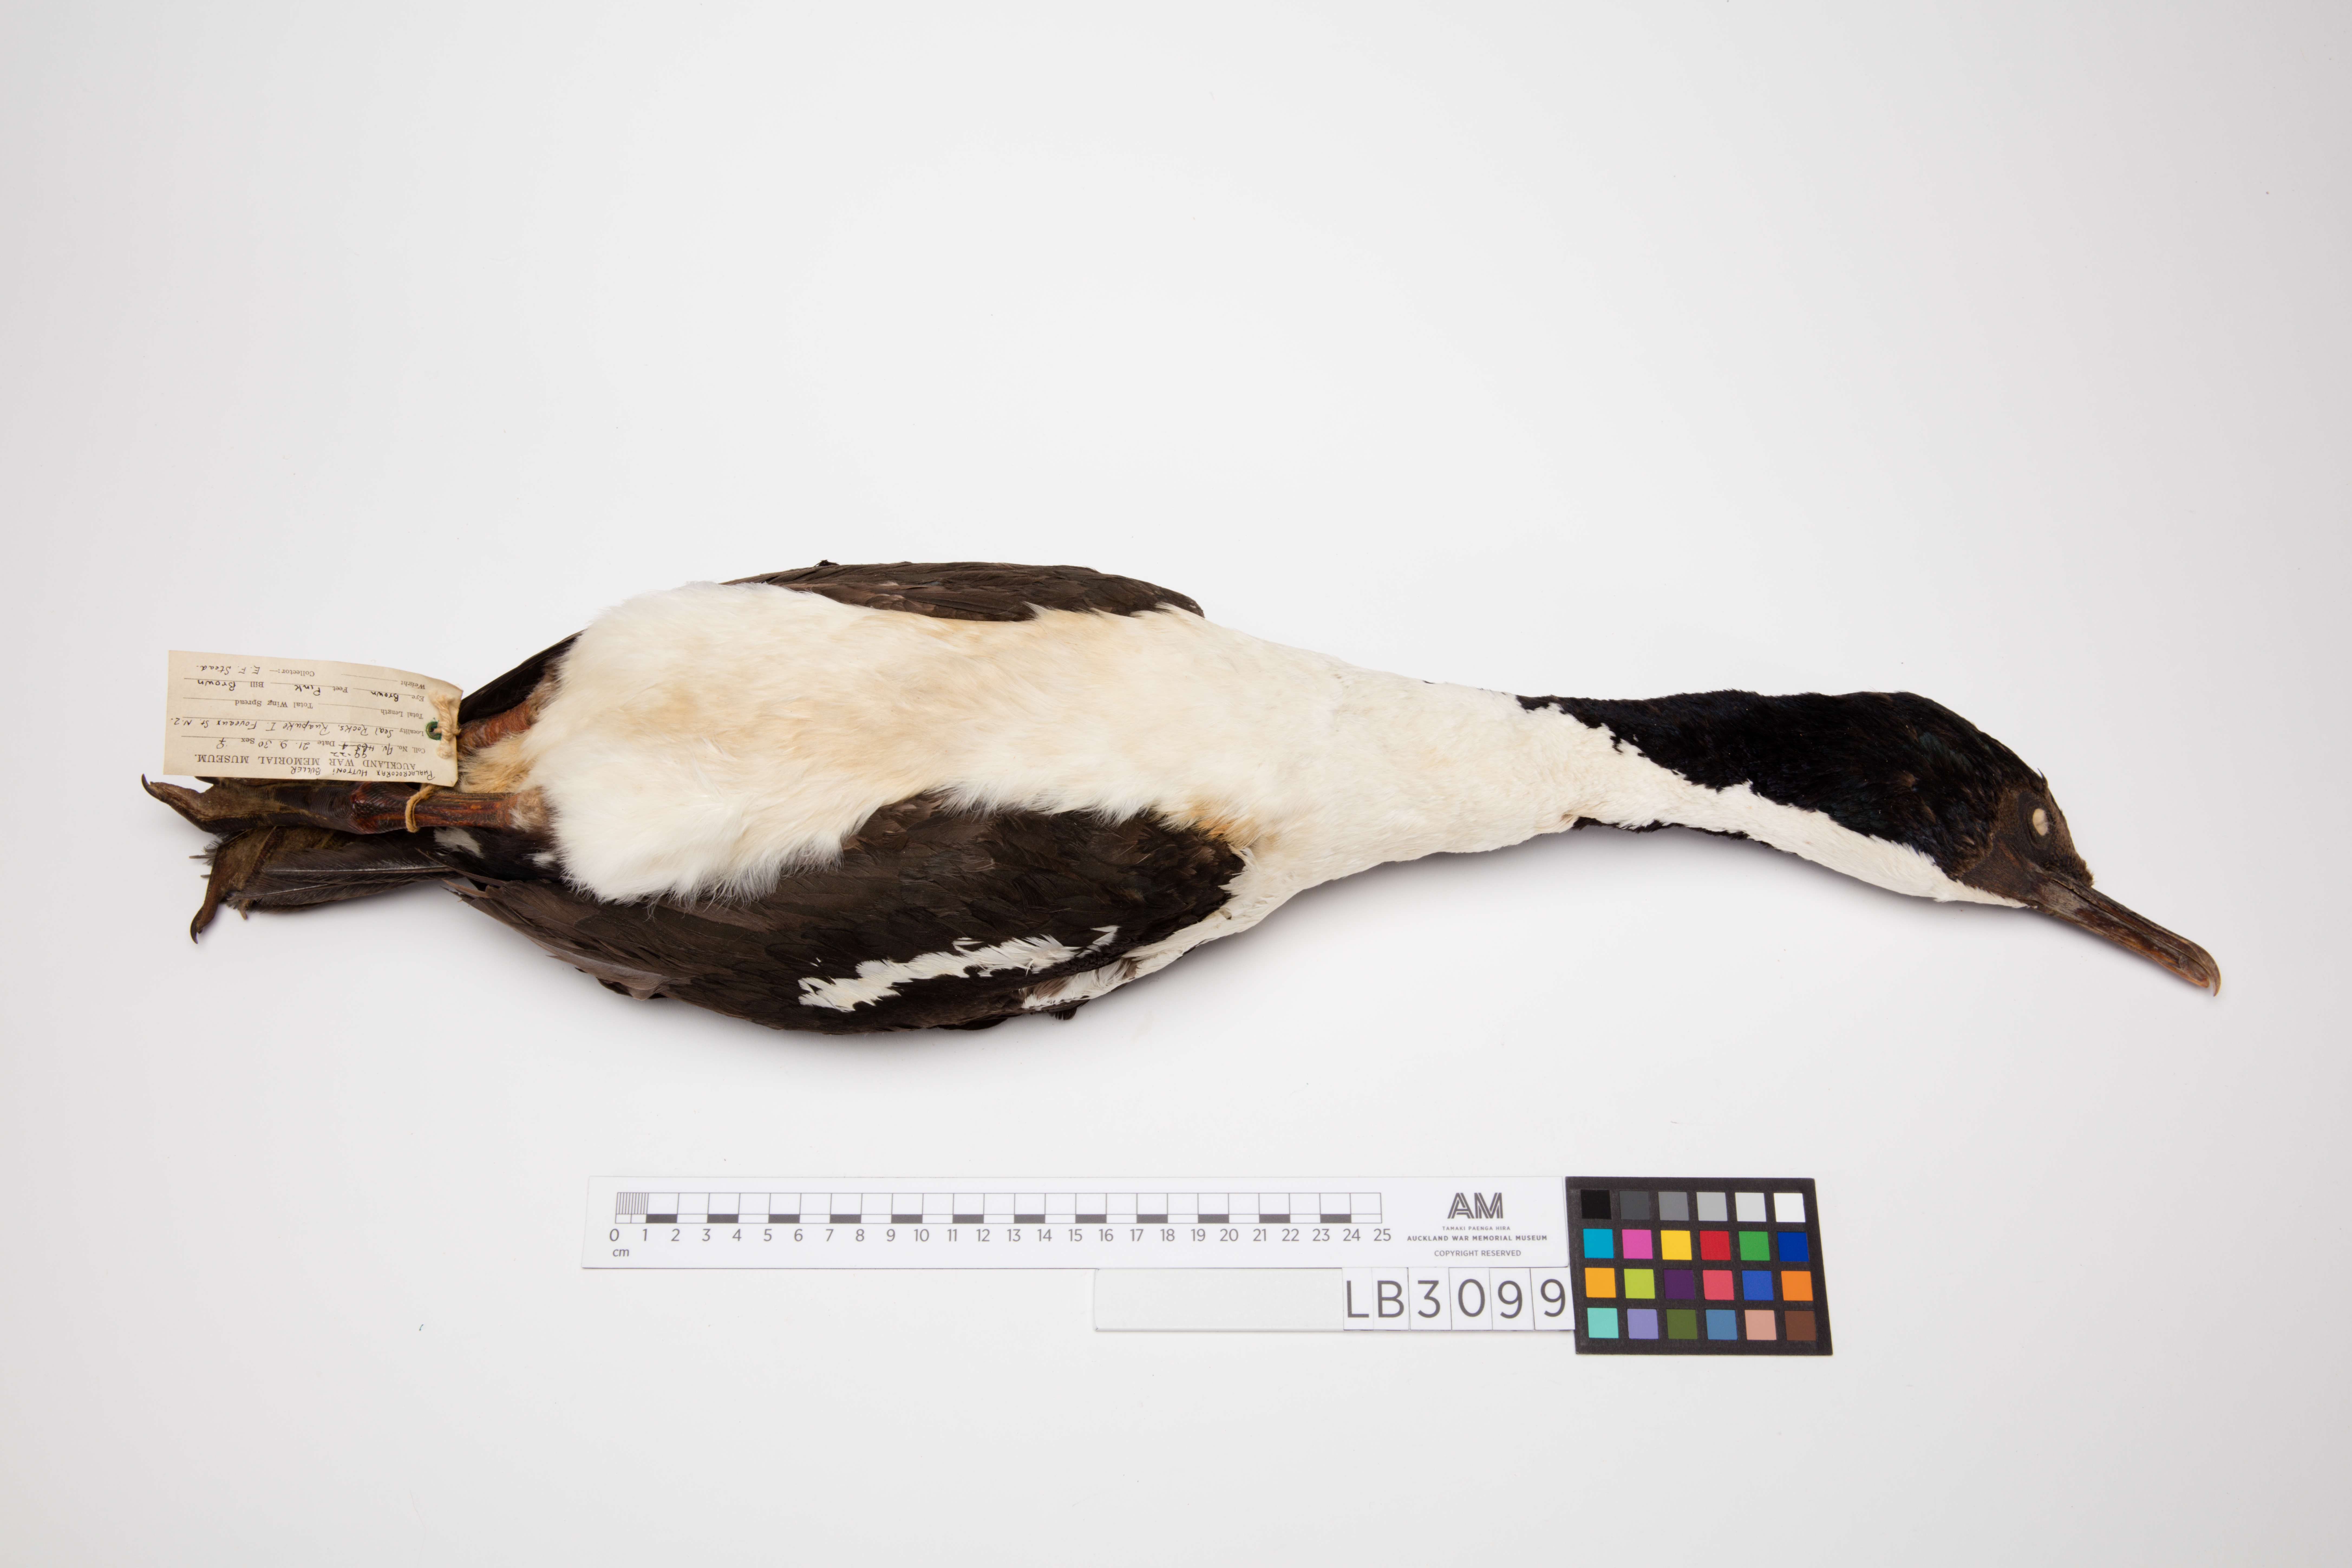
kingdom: Animalia
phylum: Chordata
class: Aves
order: Suliformes
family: Phalacrocoracidae
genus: Leucocarbo
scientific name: Leucocarbo chalconotus
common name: Stewart shag
